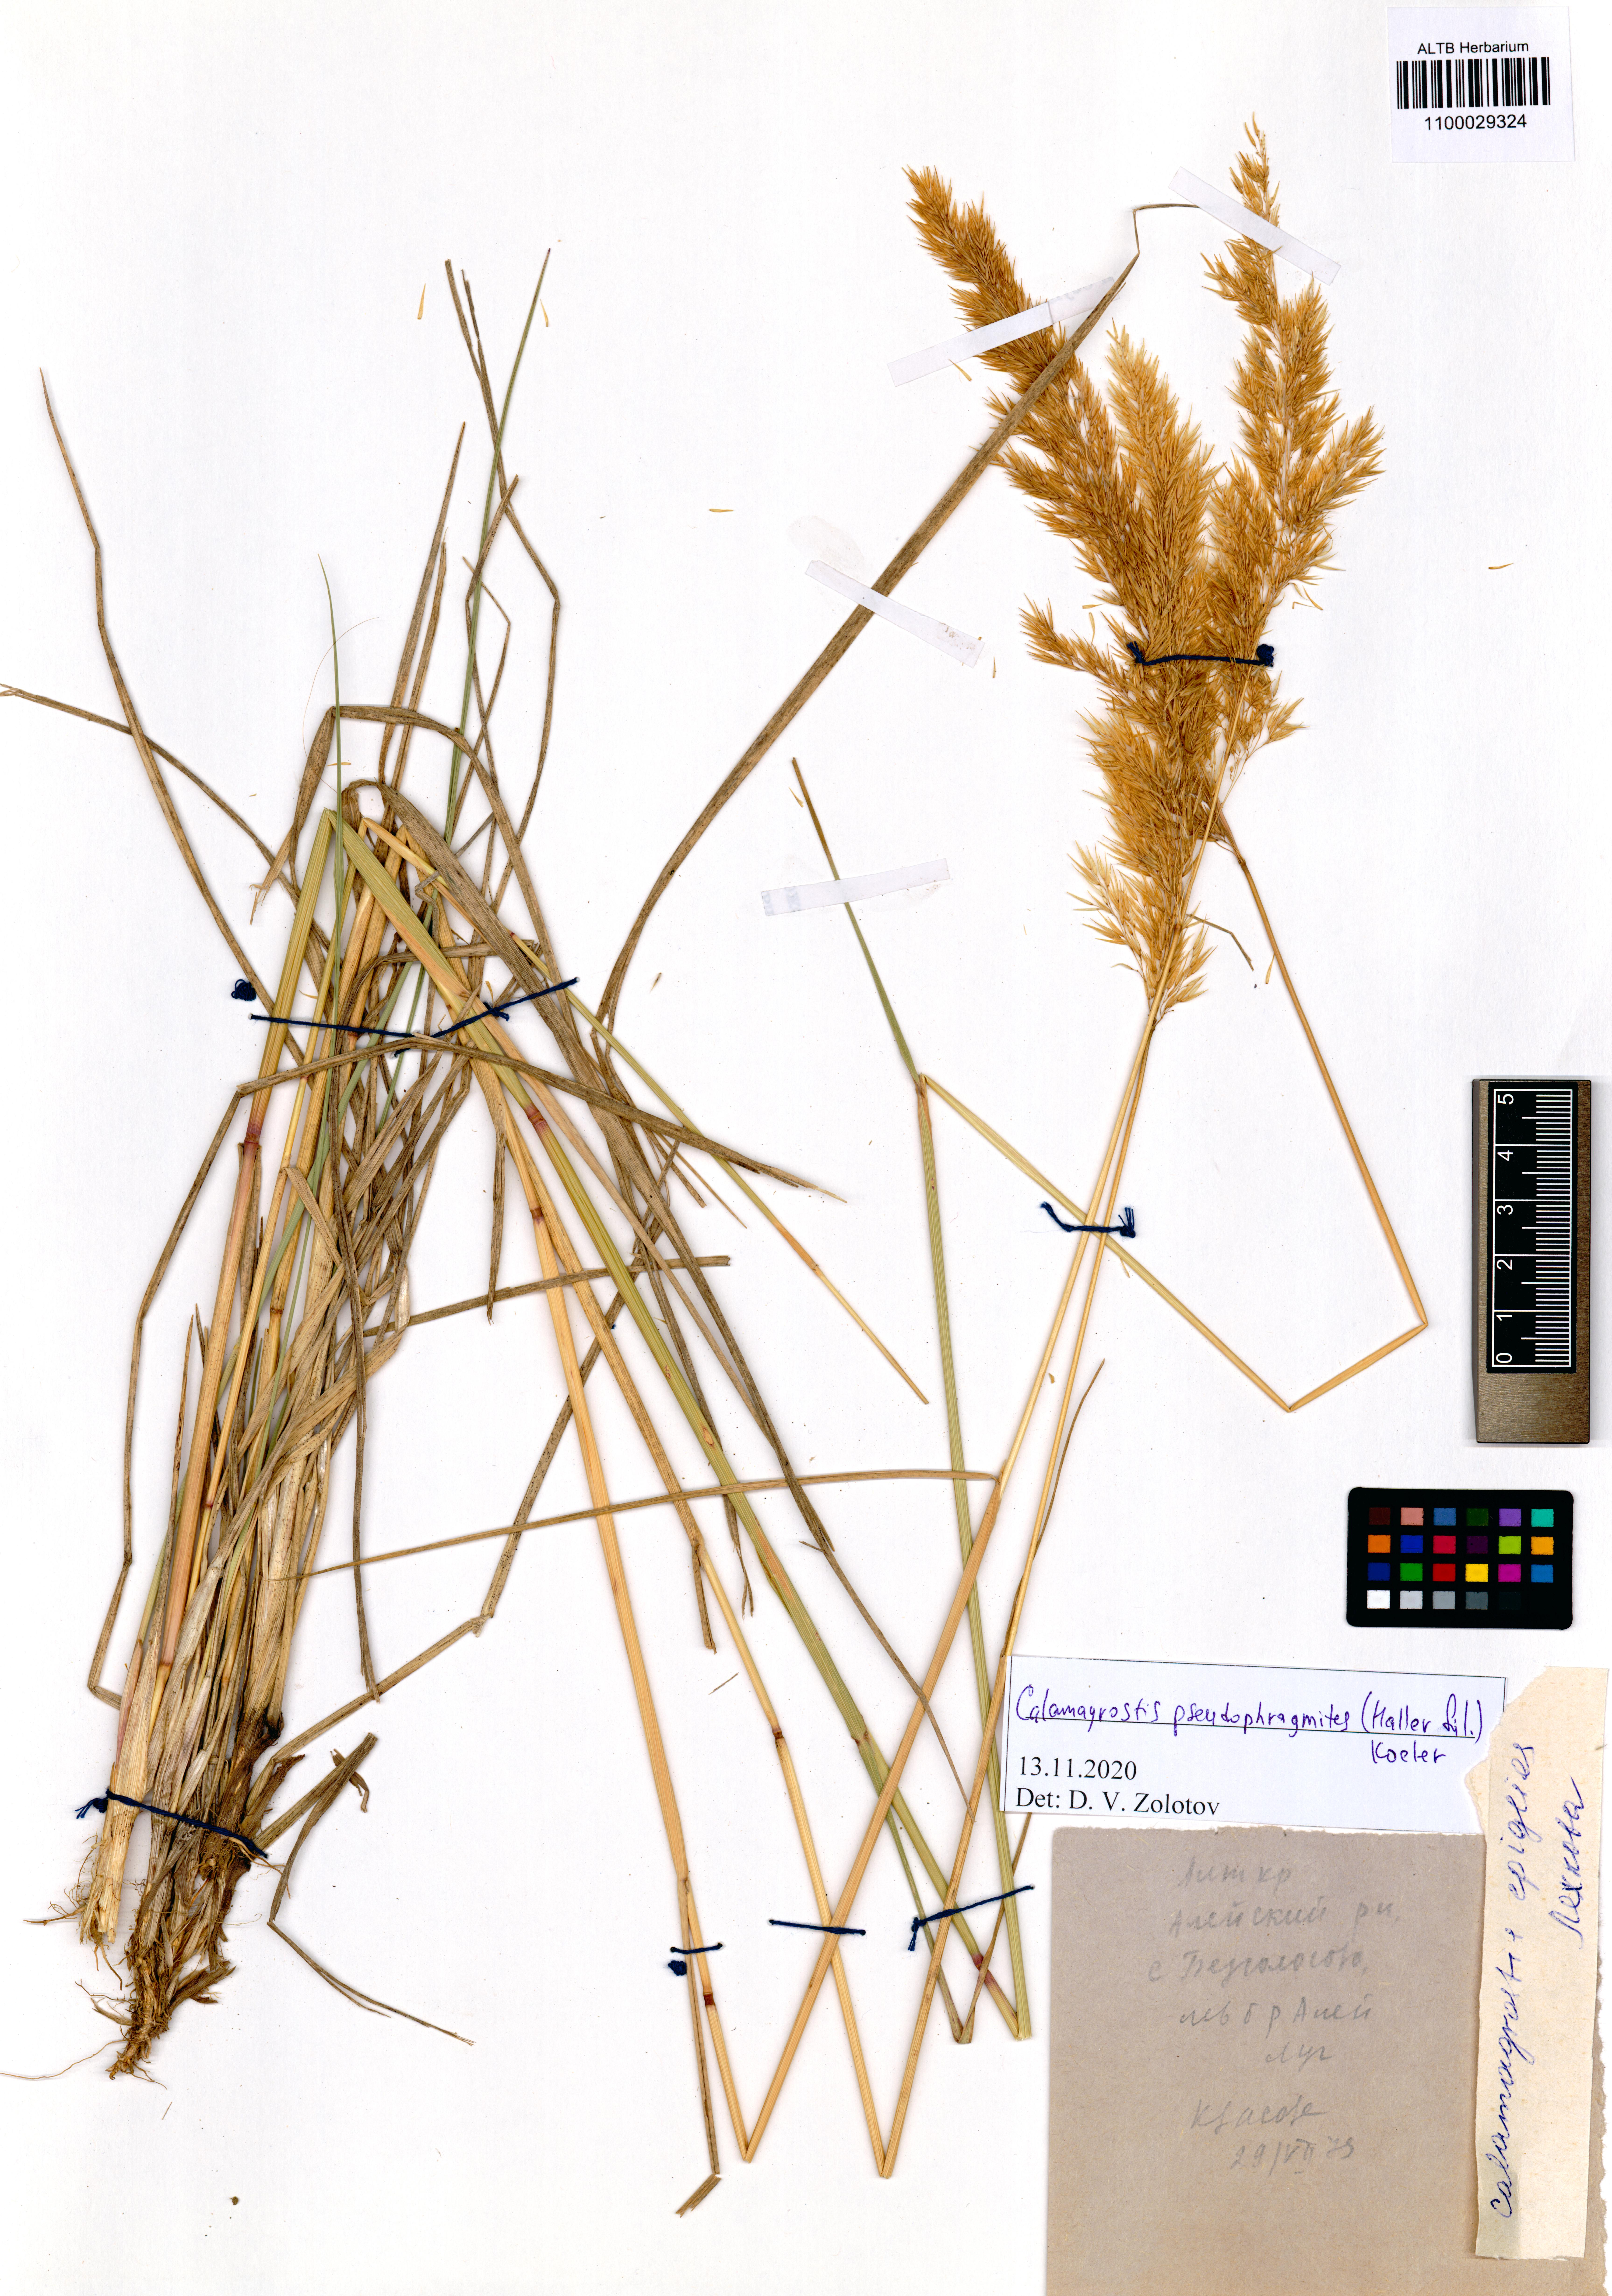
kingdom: Plantae
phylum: Tracheophyta
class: Liliopsida
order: Poales
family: Poaceae
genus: Calamagrostis
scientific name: Calamagrostis pseudophragmites
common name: Coastal small-reed
